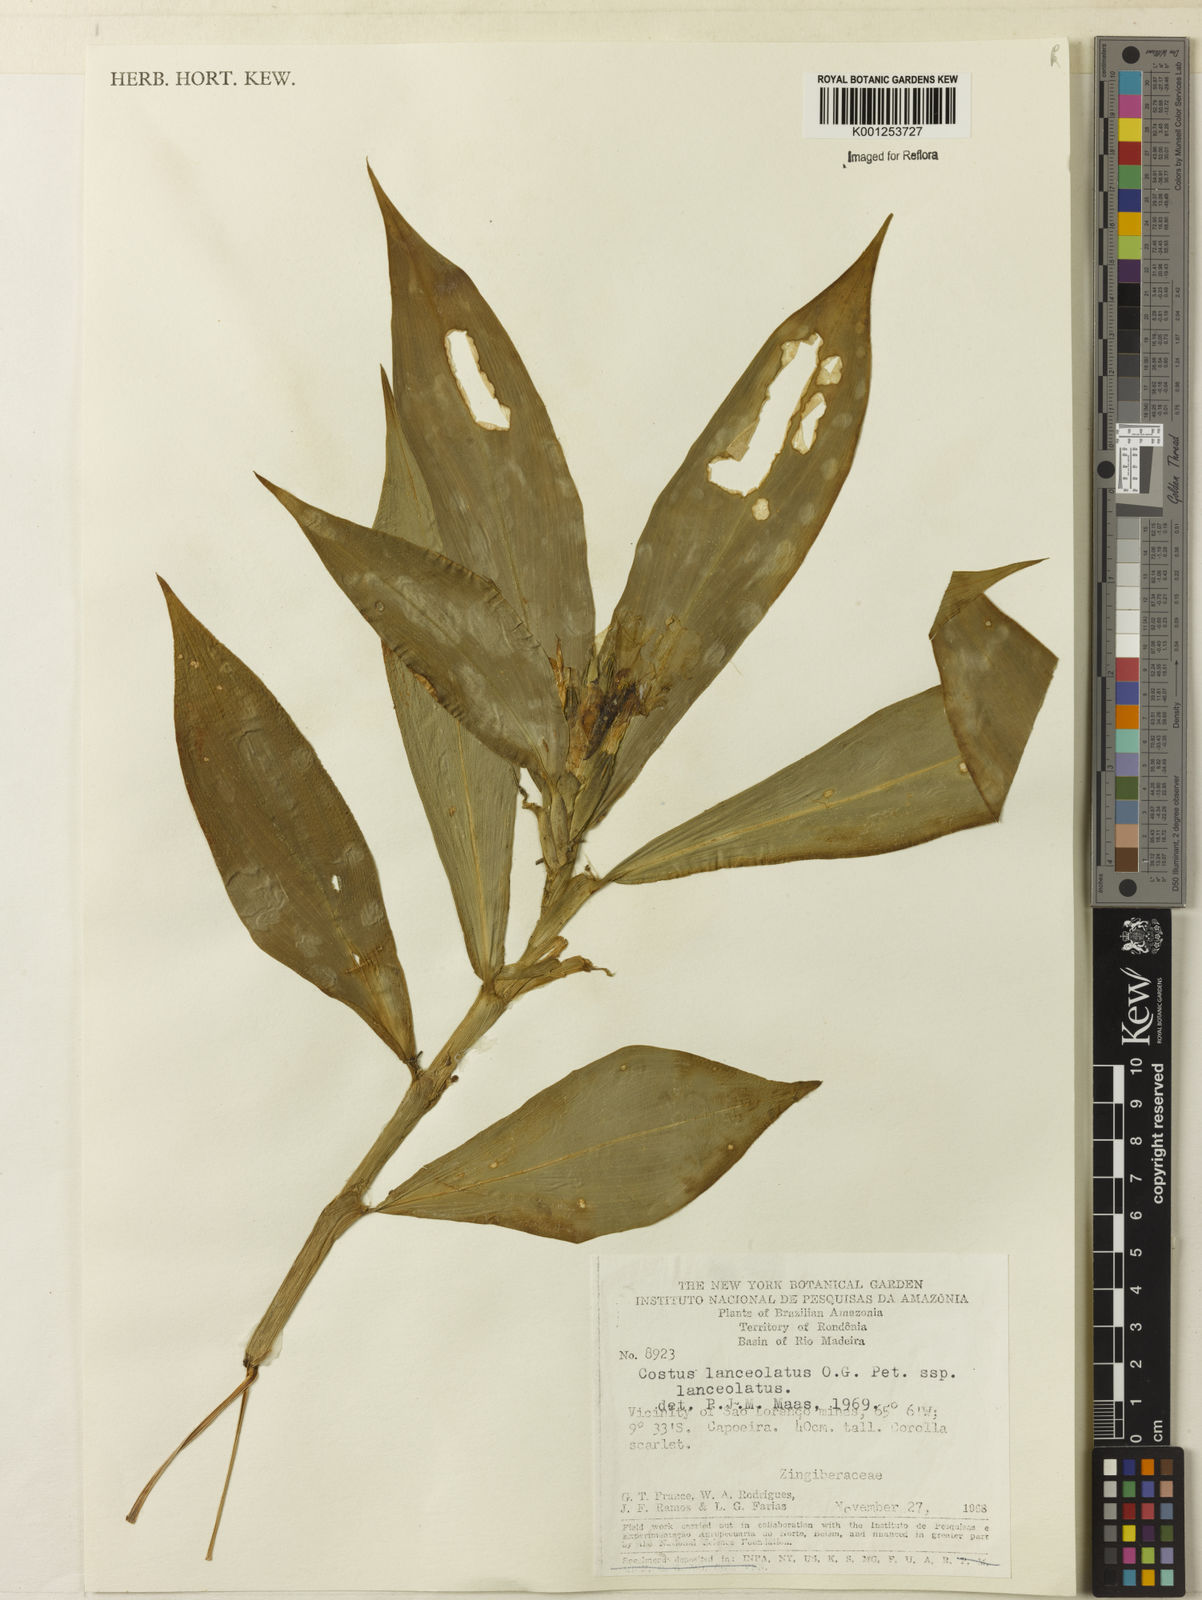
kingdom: Plantae
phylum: Tracheophyta
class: Liliopsida
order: Zingiberales
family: Costaceae
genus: Chamaecostus
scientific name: Chamaecostus lanceolatus
